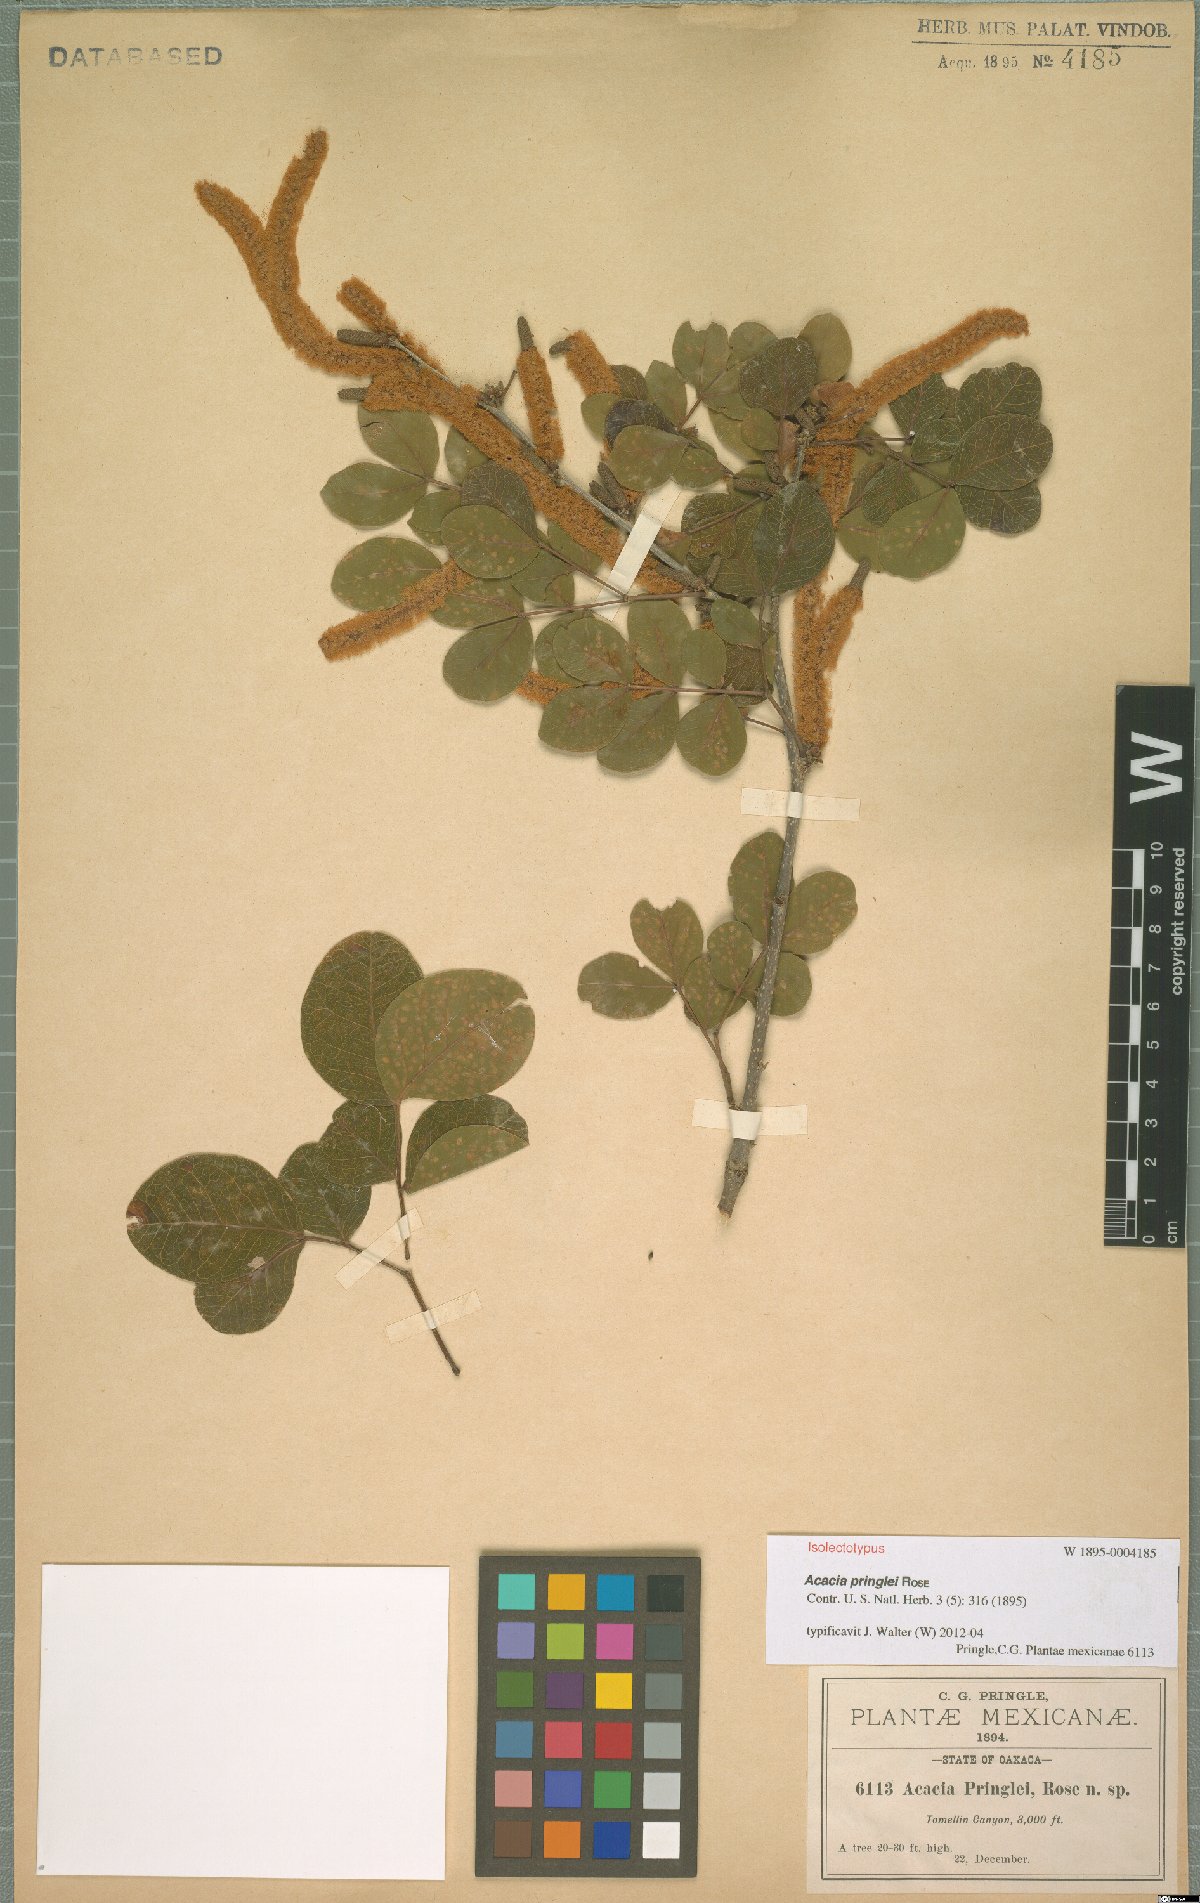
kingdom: Plantae
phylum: Tracheophyta
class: Magnoliopsida
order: Fabales
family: Fabaceae
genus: Vachellia
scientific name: Vachellia pringlei
